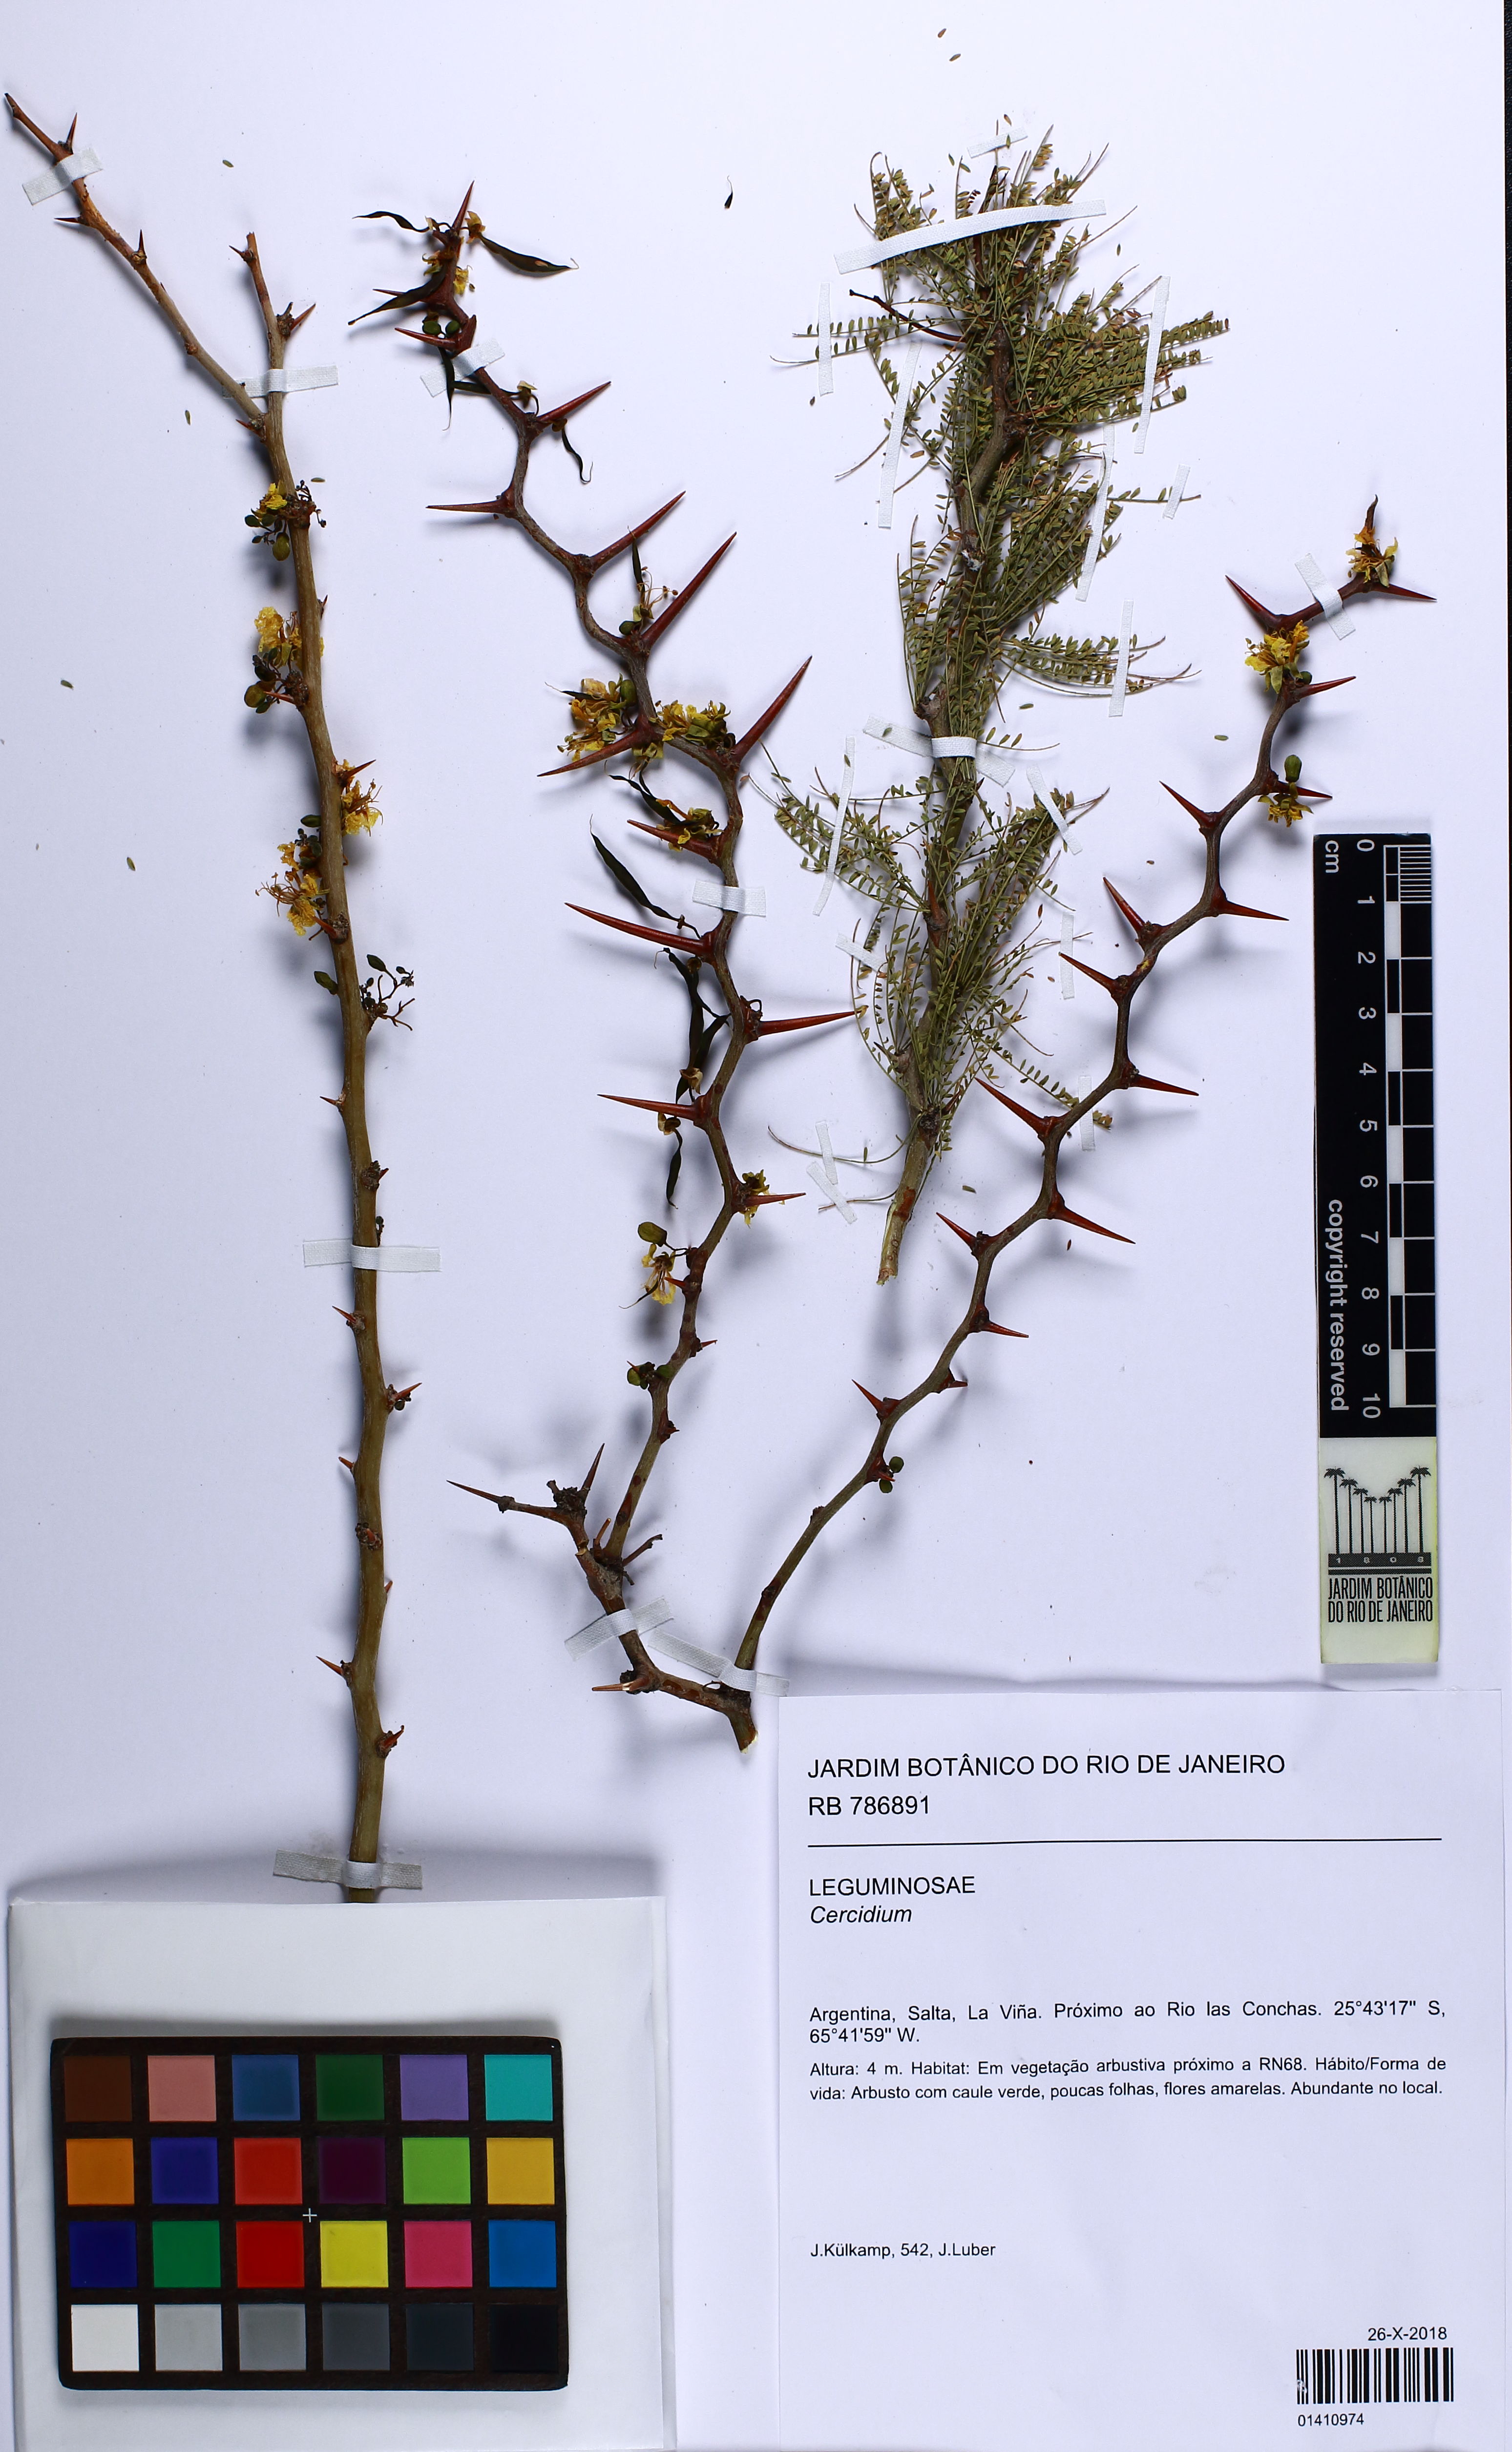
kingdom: Plantae
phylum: Chlorophyta
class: Chlorophyceae
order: Volvocales
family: Chlamydomonadaceae
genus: Cercidium
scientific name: Cercidium
